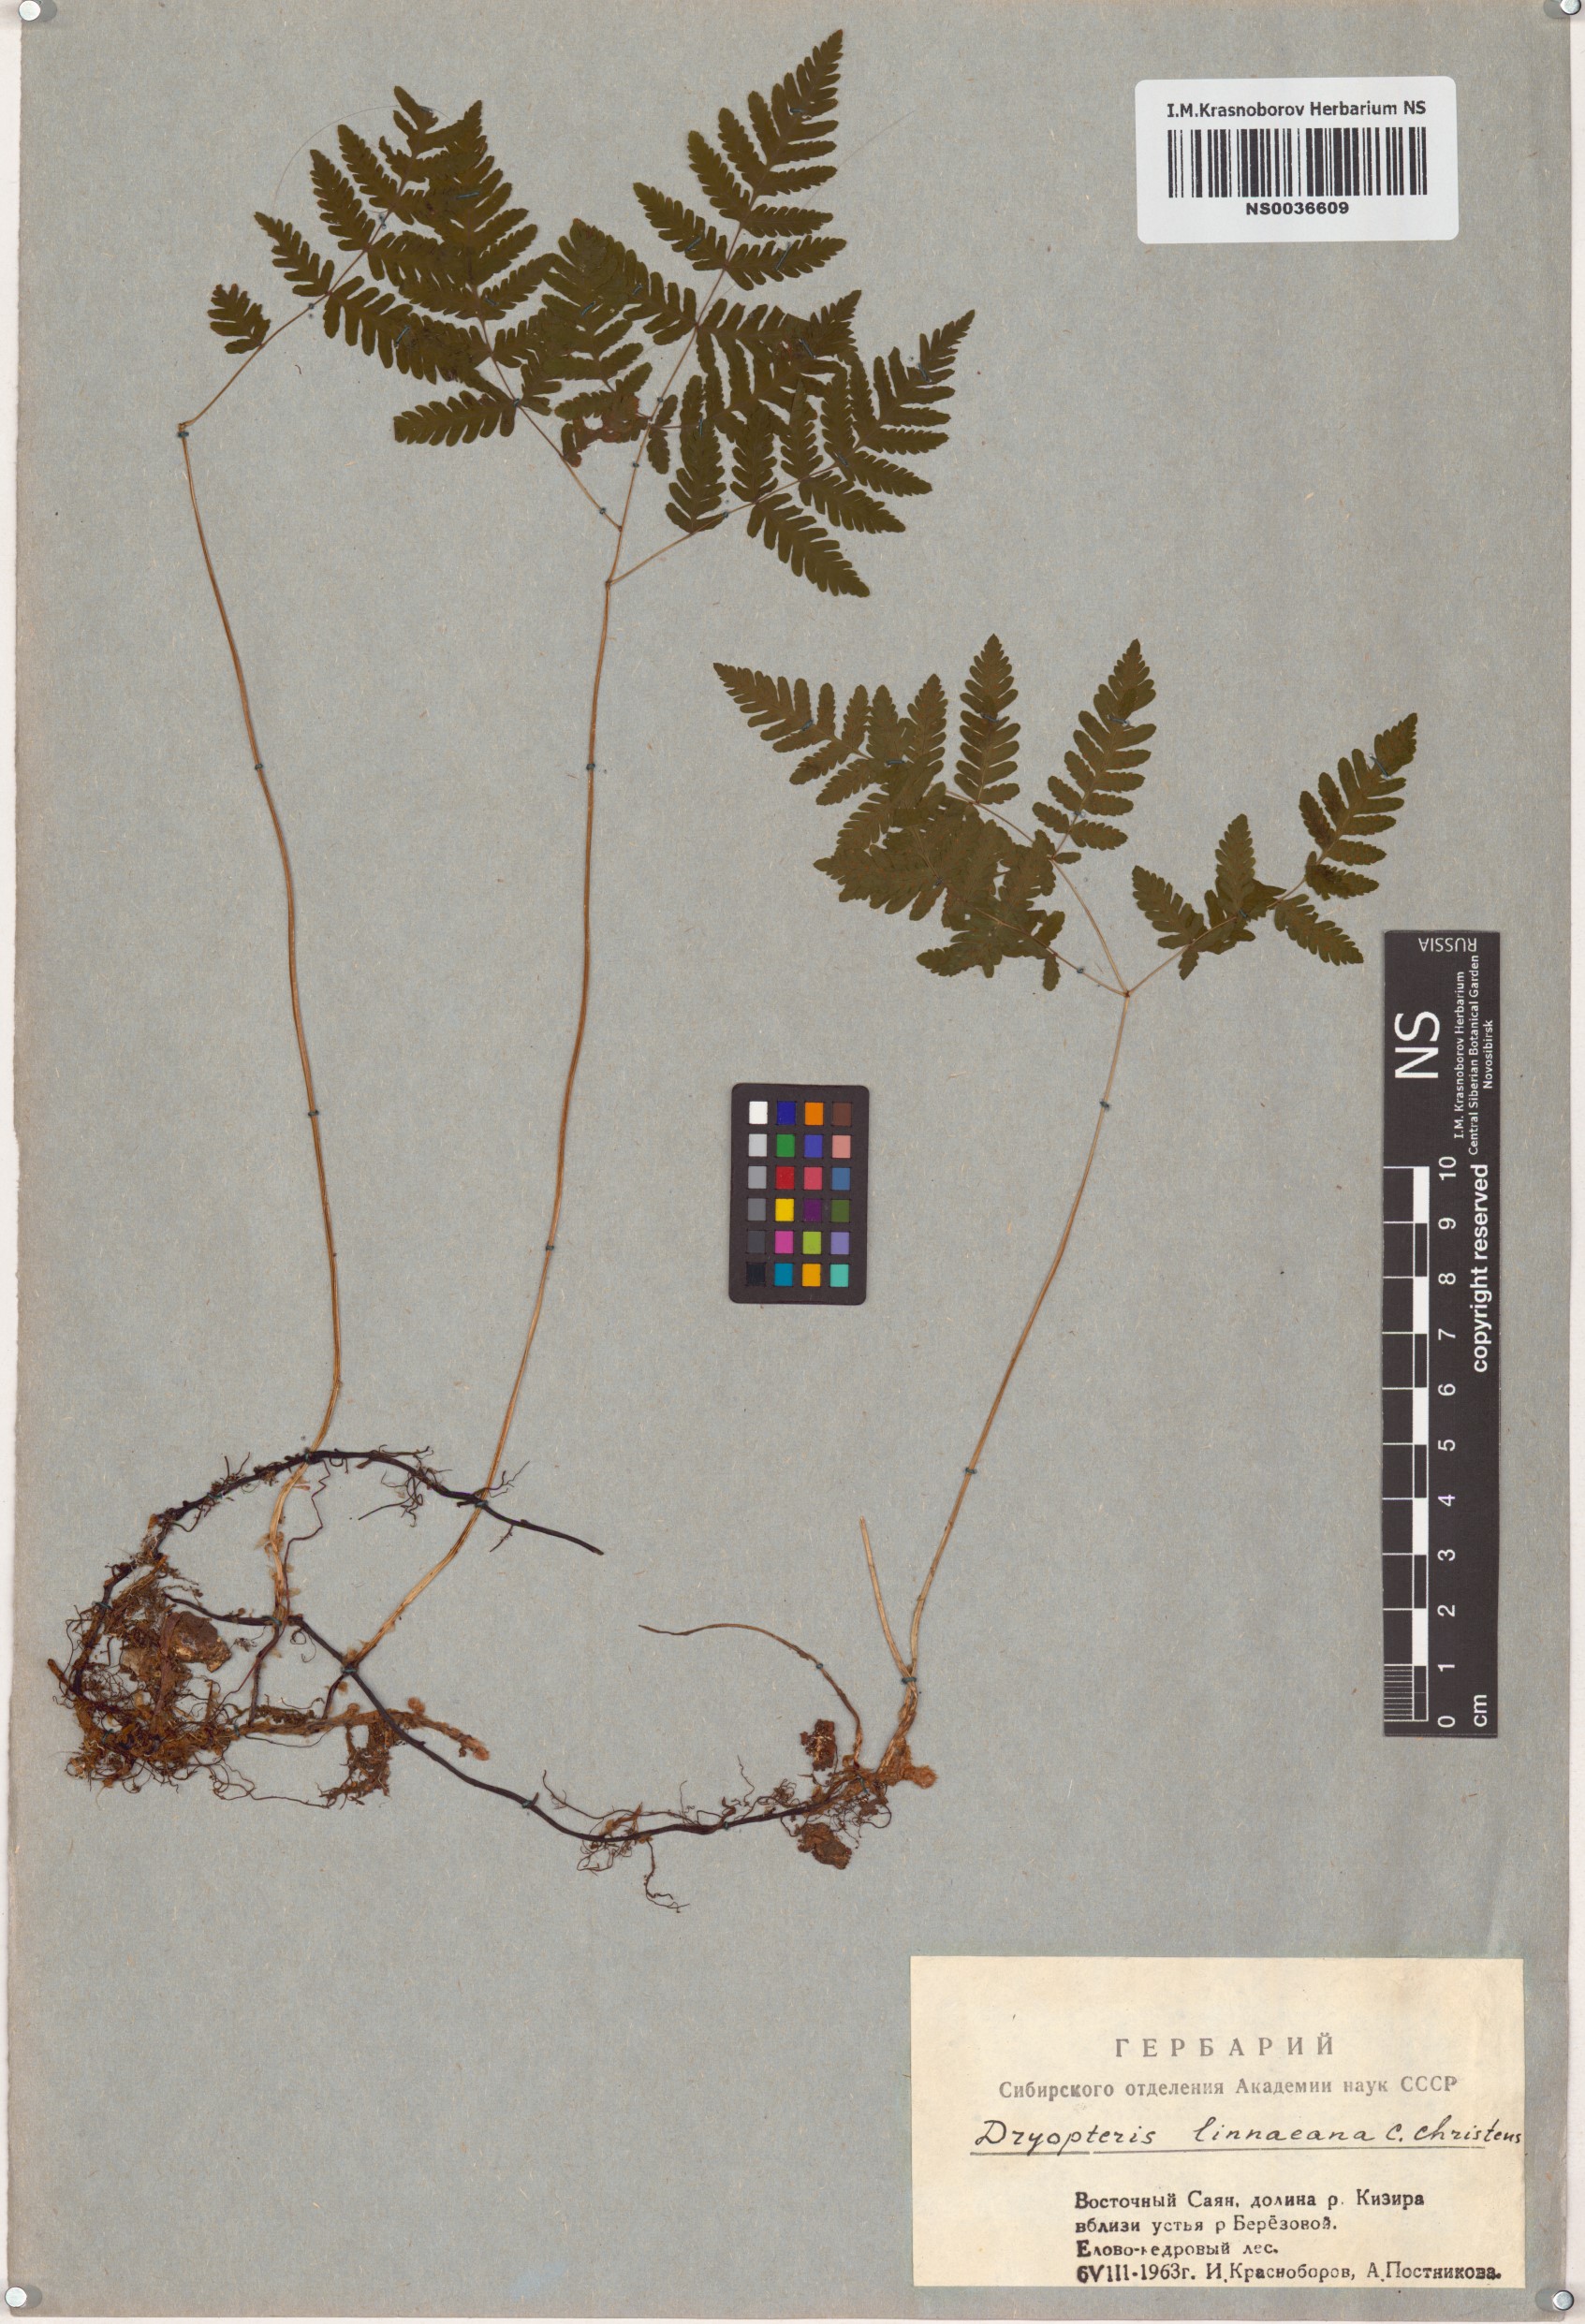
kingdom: Plantae
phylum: Tracheophyta
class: Polypodiopsida
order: Polypodiales
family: Cystopteridaceae
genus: Gymnocarpium
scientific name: Gymnocarpium dryopteris
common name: Oak fern
